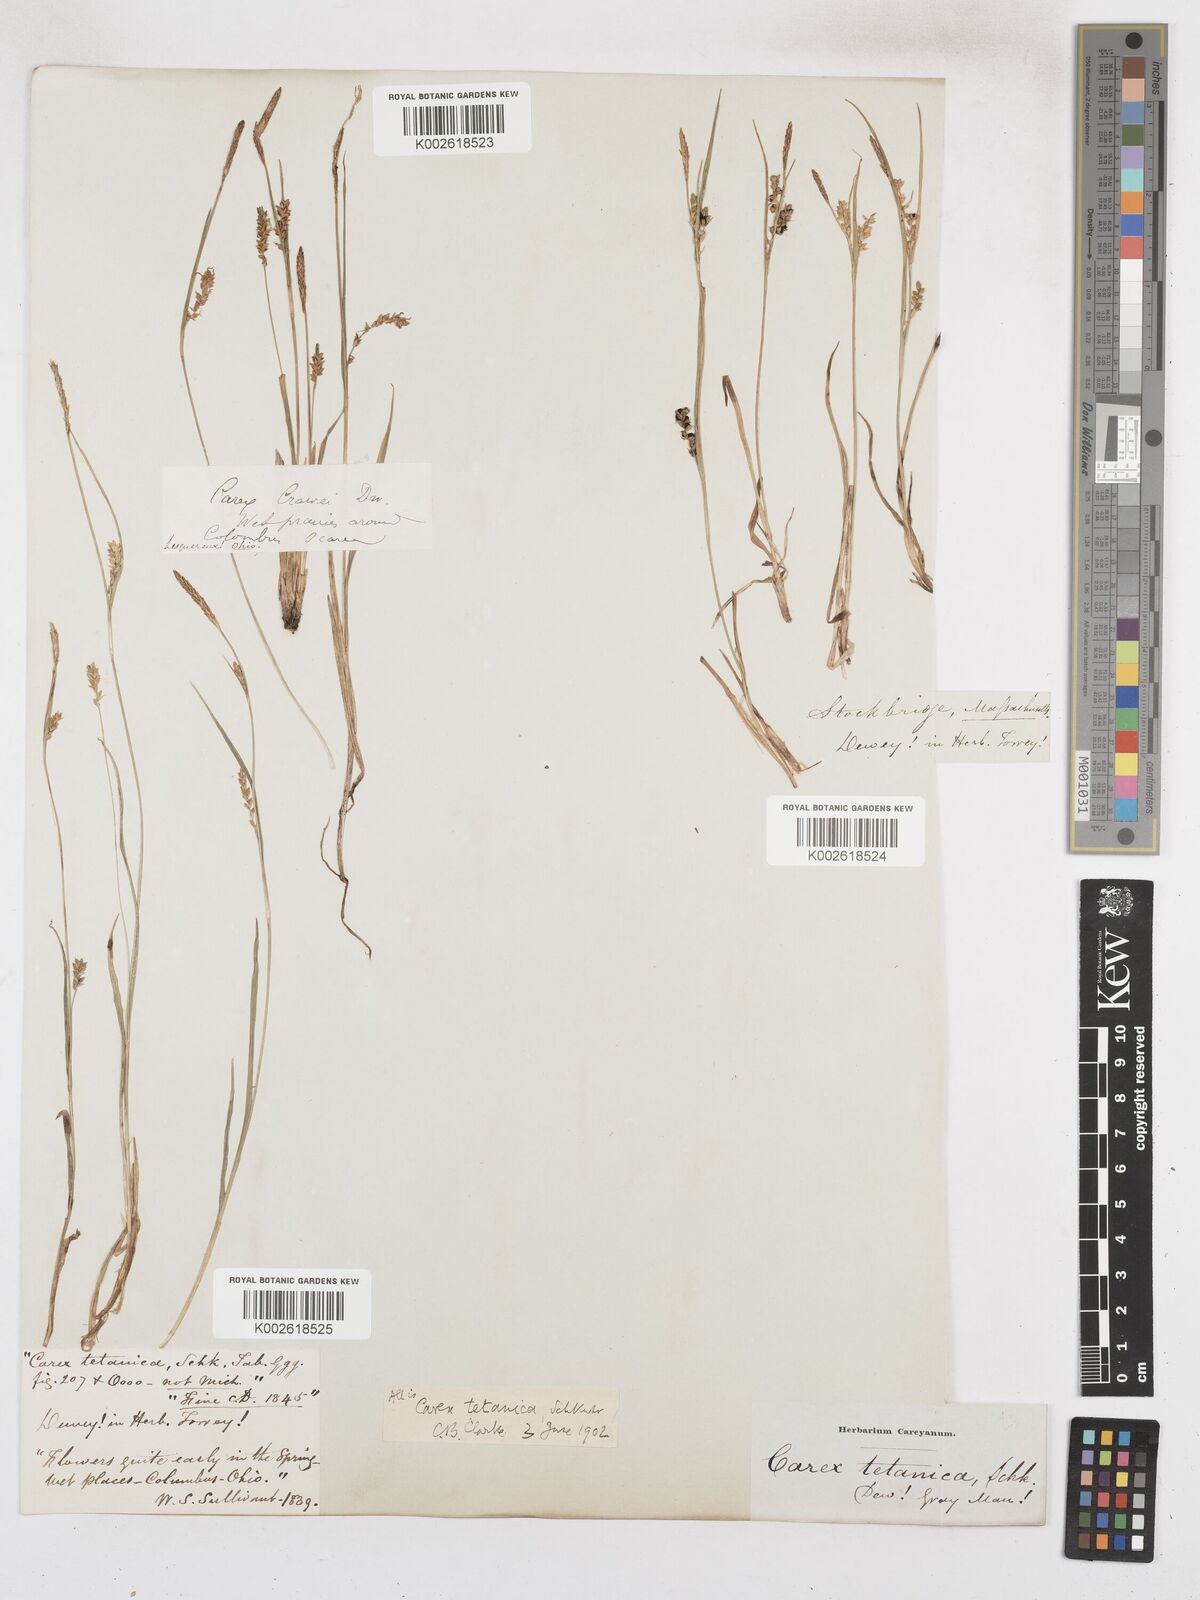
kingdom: Plantae
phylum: Tracheophyta
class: Liliopsida
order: Poales
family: Cyperaceae
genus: Carex
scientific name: Carex tetanica
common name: Rigid sedge
